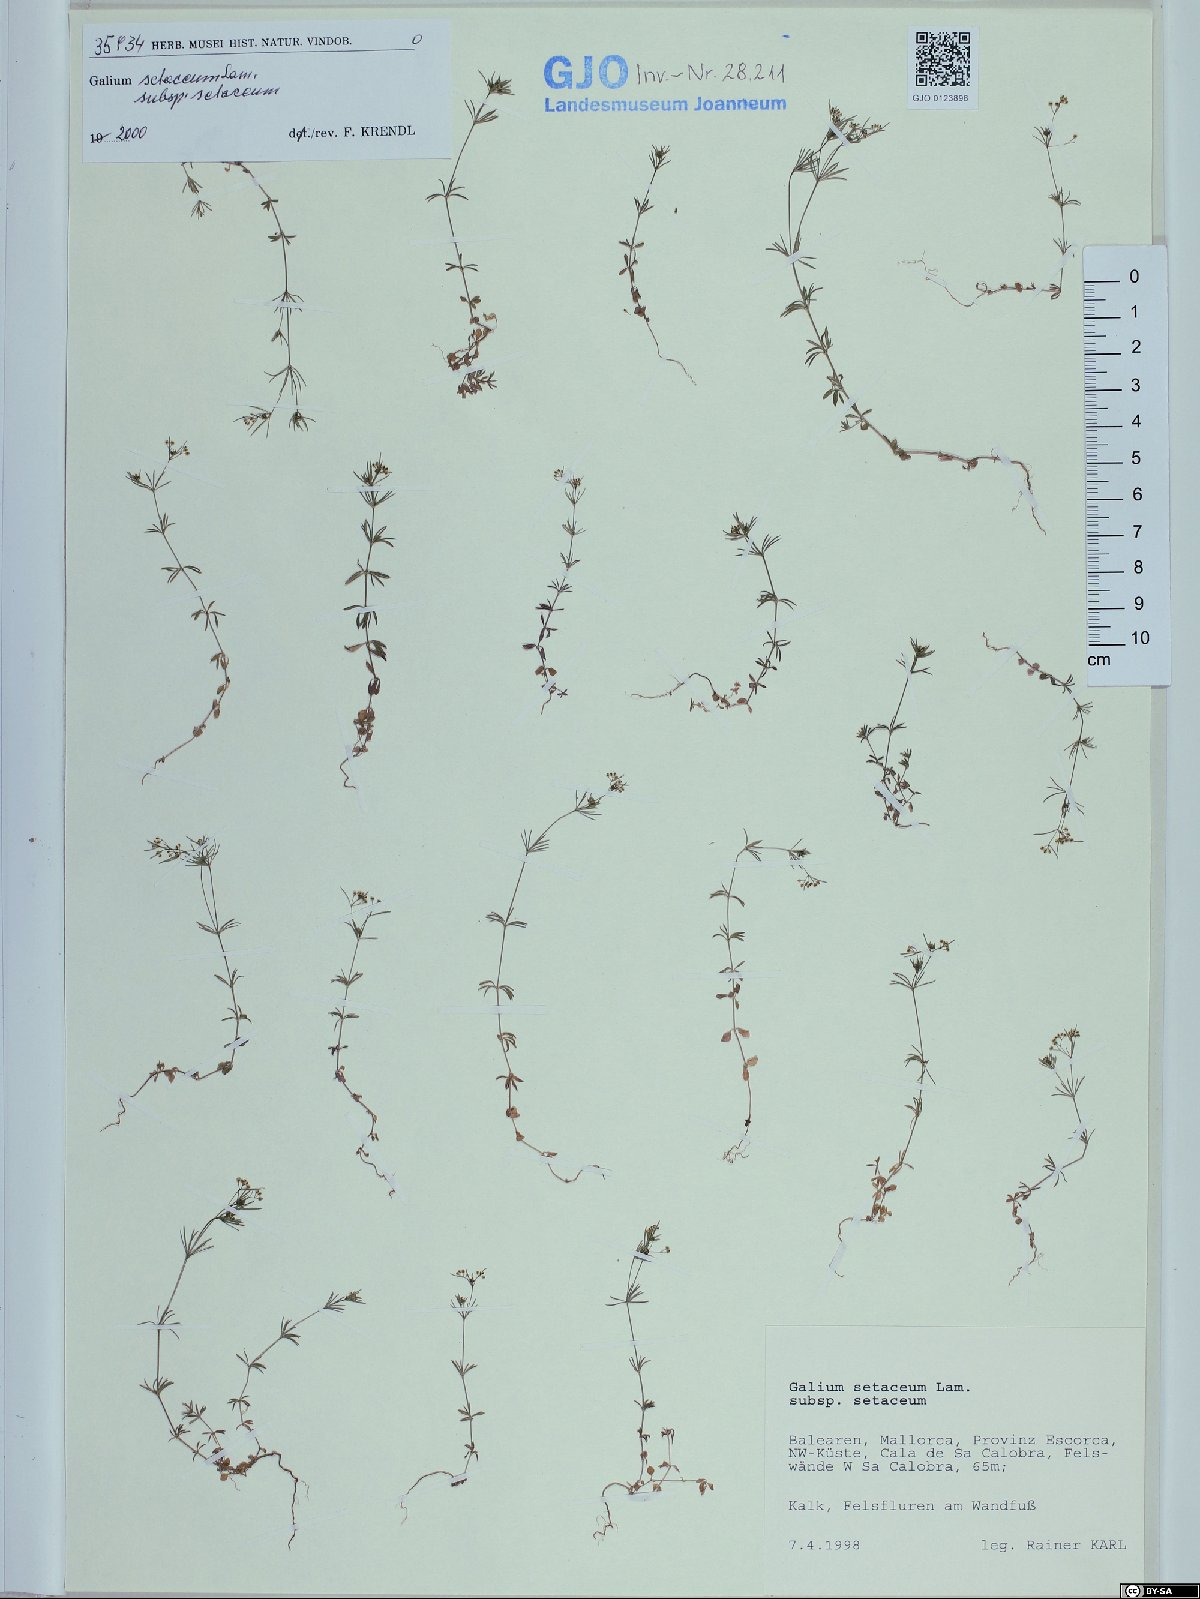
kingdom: Plantae
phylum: Tracheophyta
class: Magnoliopsida
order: Gentianales
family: Rubiaceae
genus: Galium
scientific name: Galium setaceum
